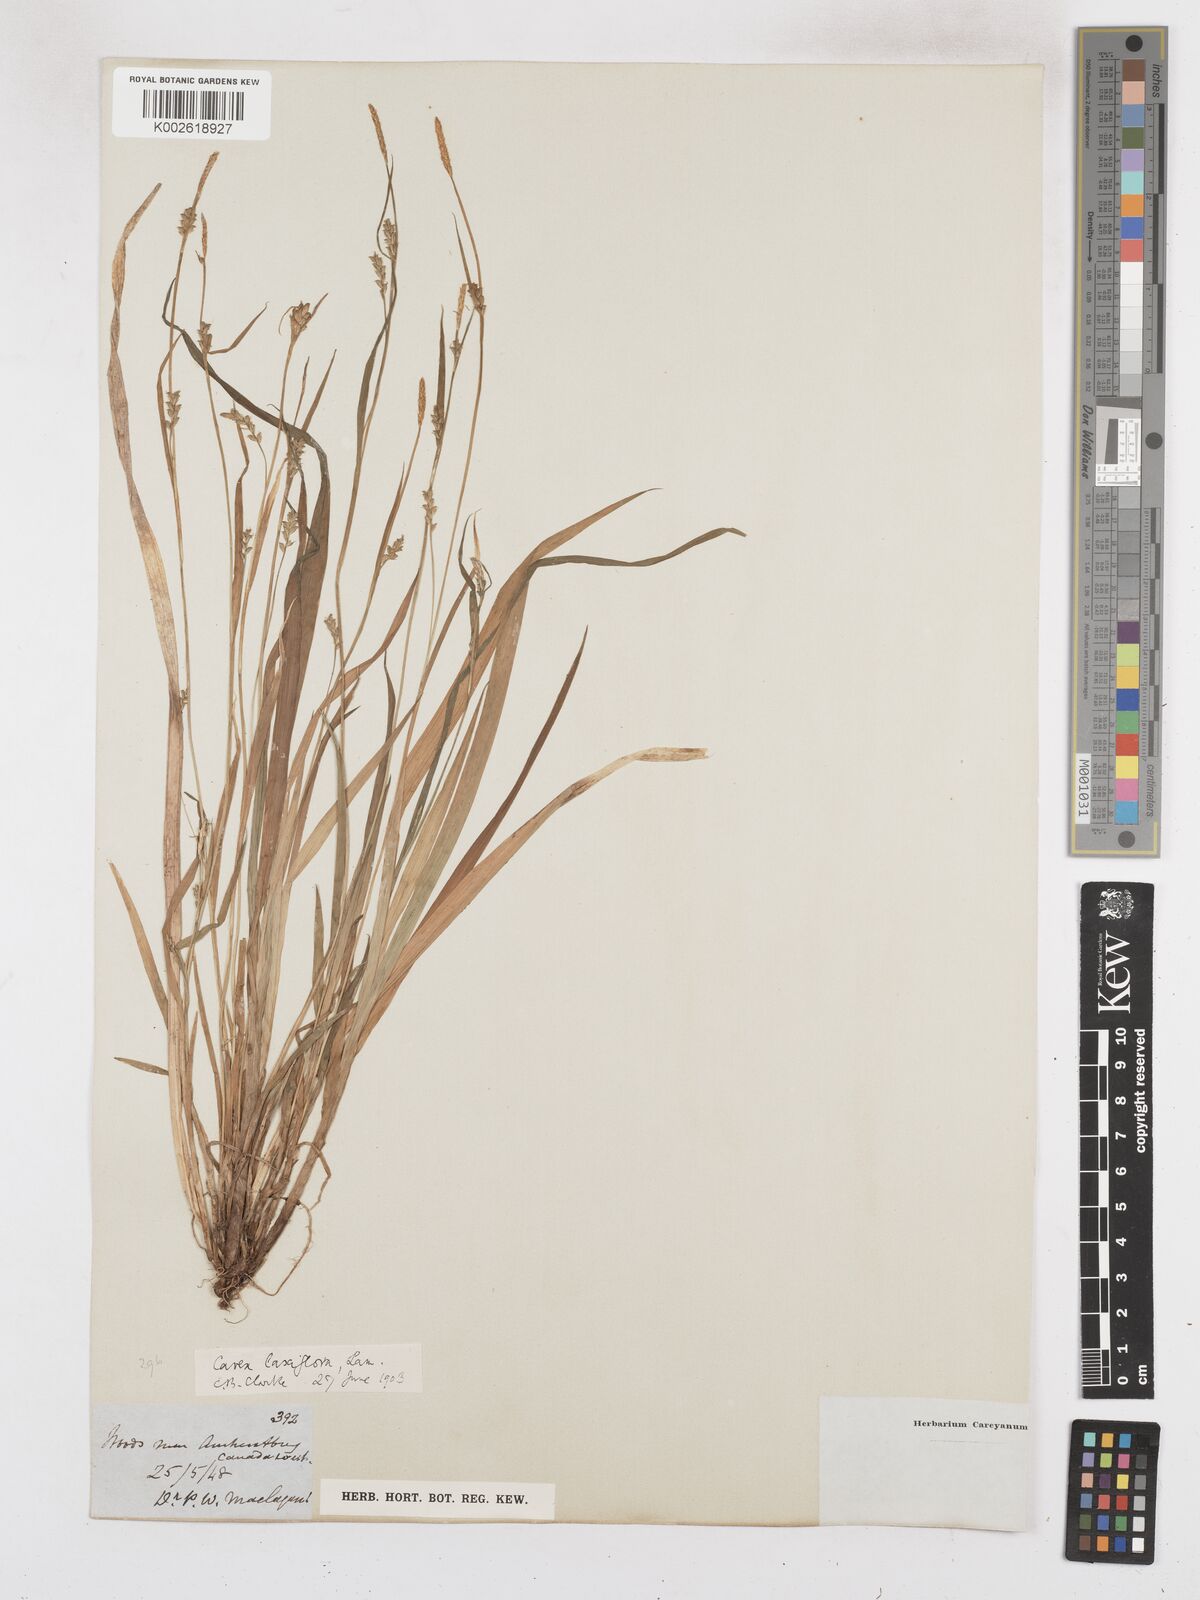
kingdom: Plantae
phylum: Tracheophyta
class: Liliopsida
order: Poales
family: Cyperaceae
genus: Carex
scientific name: Carex laxiflora
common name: Beech wood sedge
